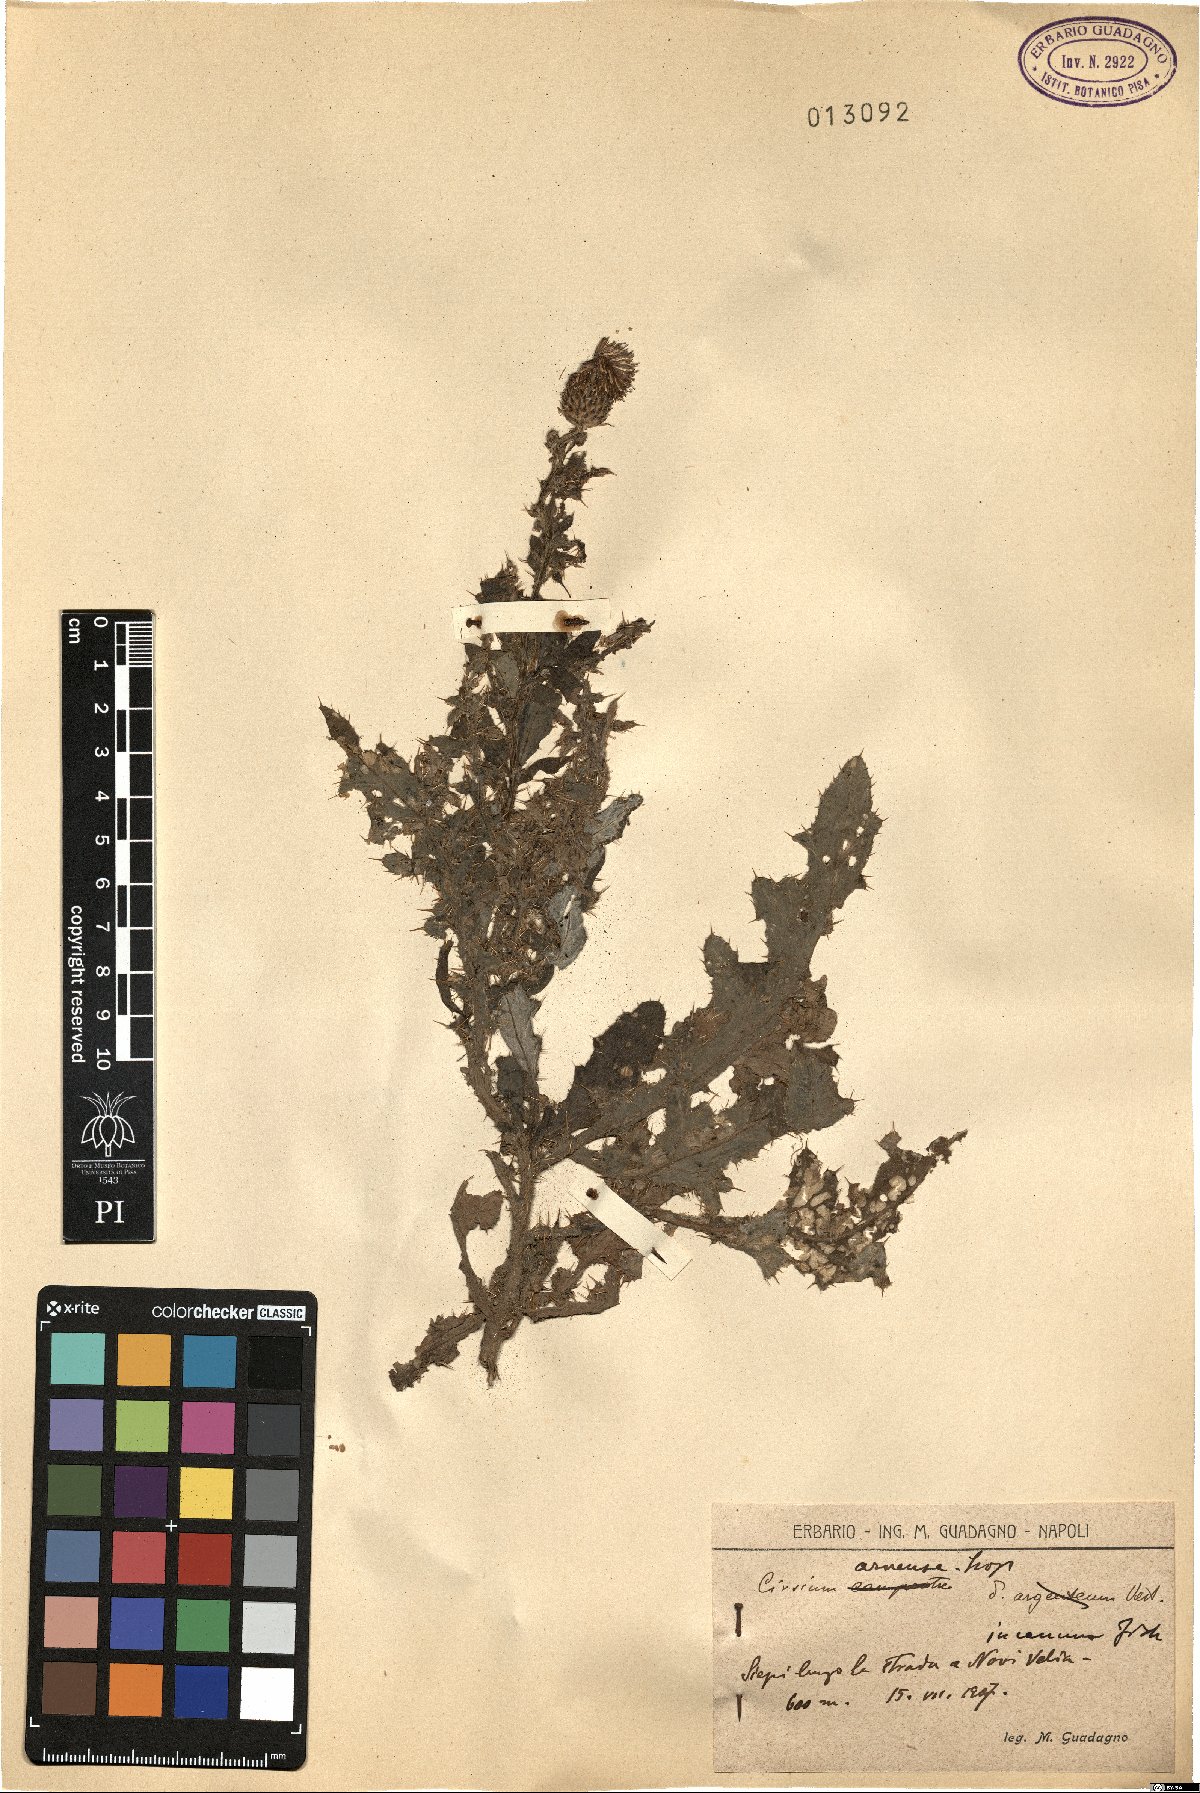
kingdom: Plantae
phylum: Tracheophyta
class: Magnoliopsida
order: Asterales
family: Asteraceae
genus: Cirsium
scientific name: Cirsium arvense
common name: Creeping thistle
